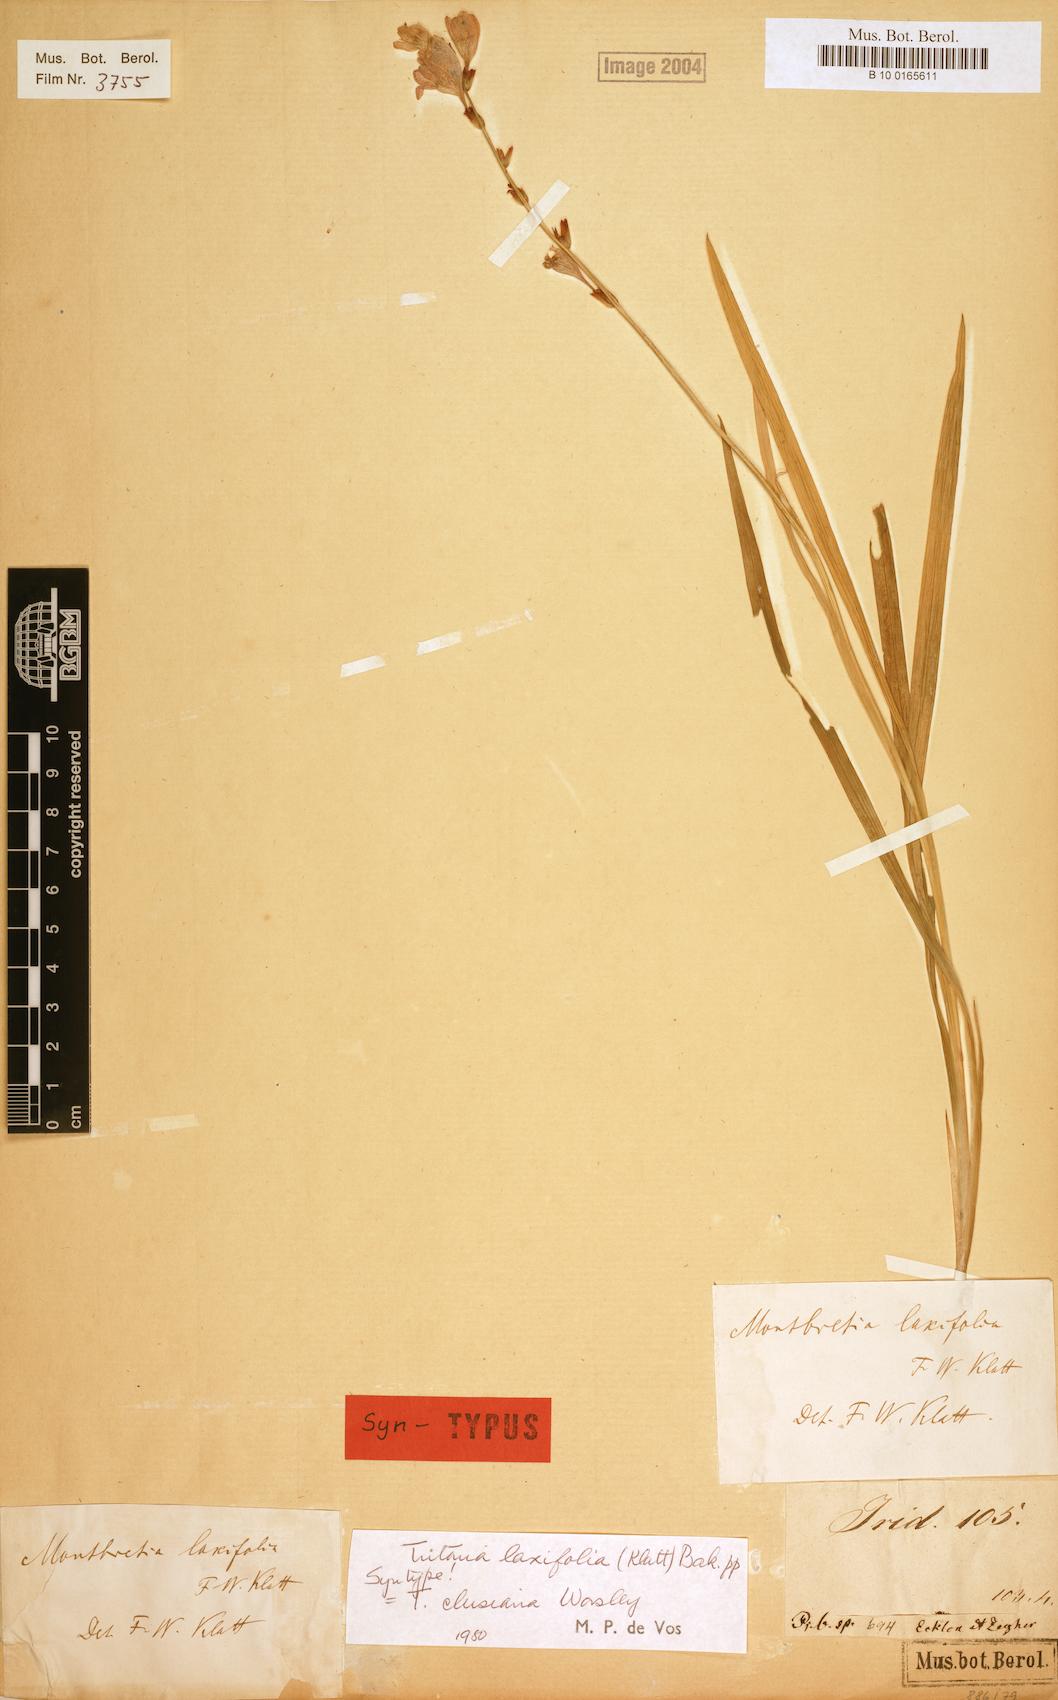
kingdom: Plantae
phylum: Tracheophyta
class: Liliopsida
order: Asparagales
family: Iridaceae
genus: Tritonia
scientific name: Tritonia laxifolia
